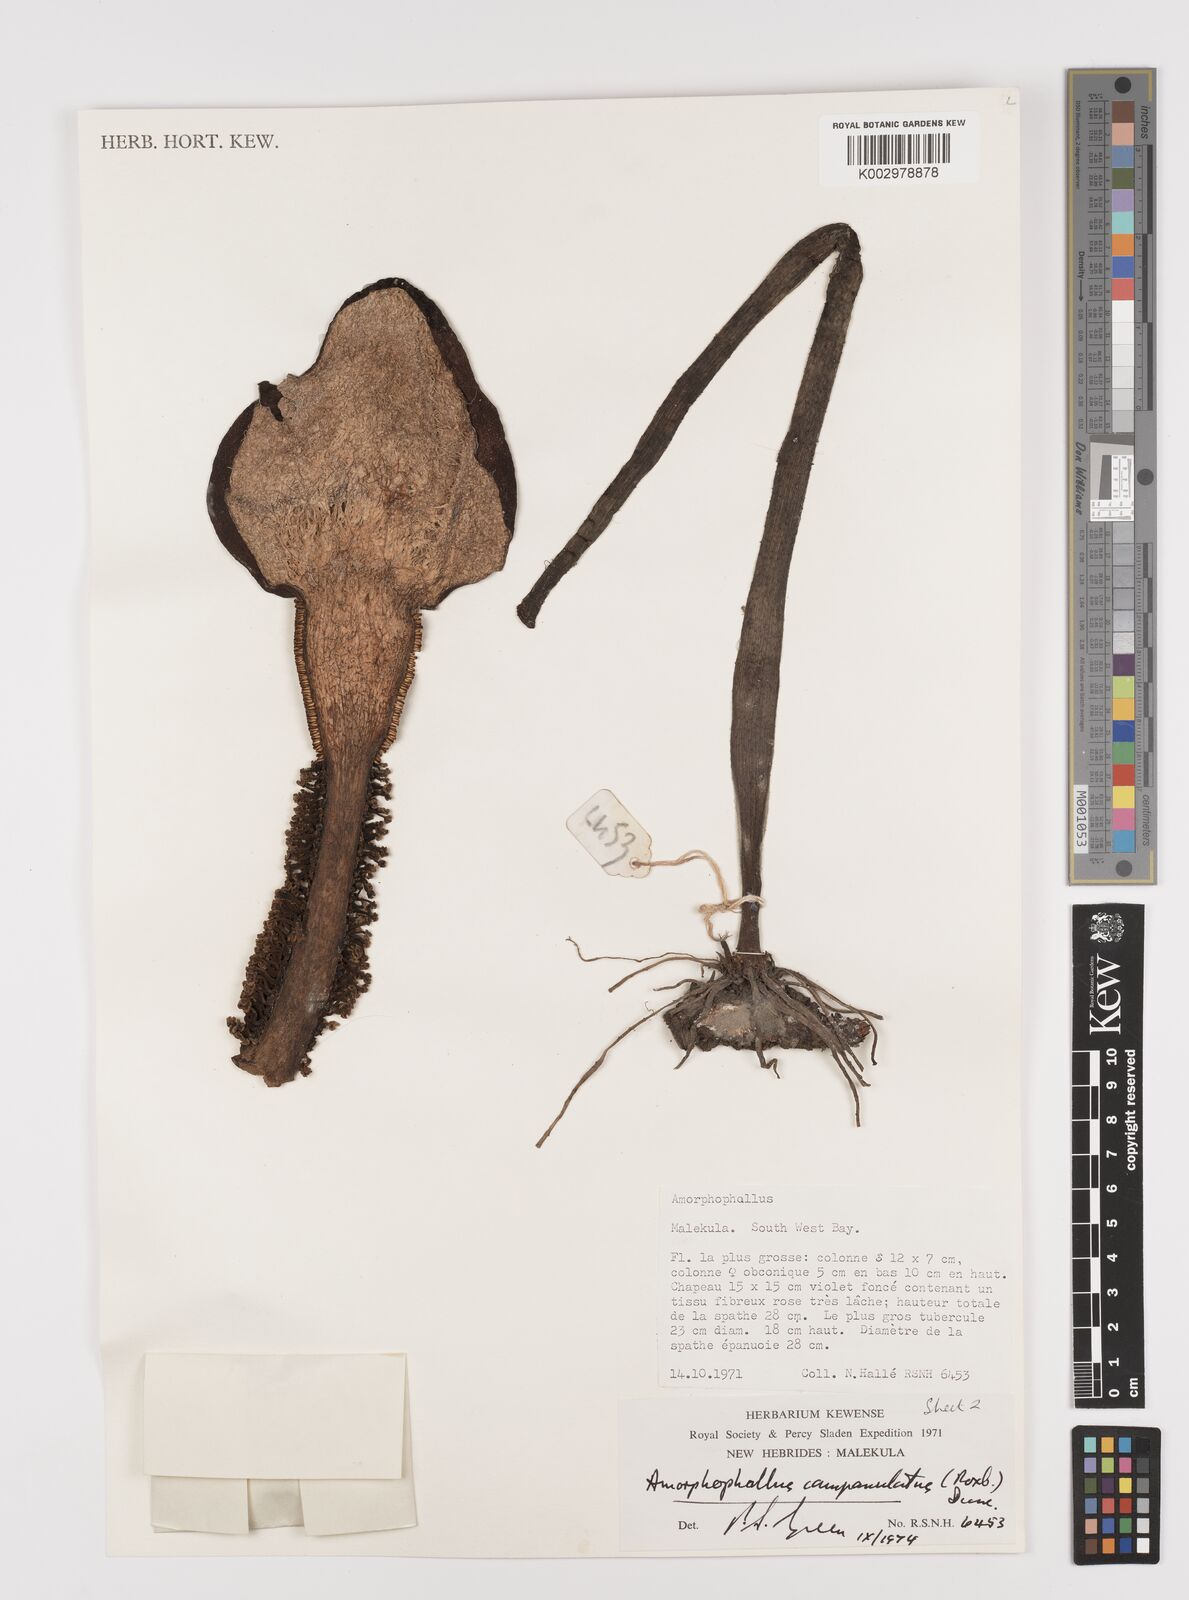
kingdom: Plantae
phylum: Tracheophyta
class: Liliopsida
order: Alismatales
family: Araceae
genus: Amorphophallus
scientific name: Amorphophallus paeoniifolius
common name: Telinga-potato
